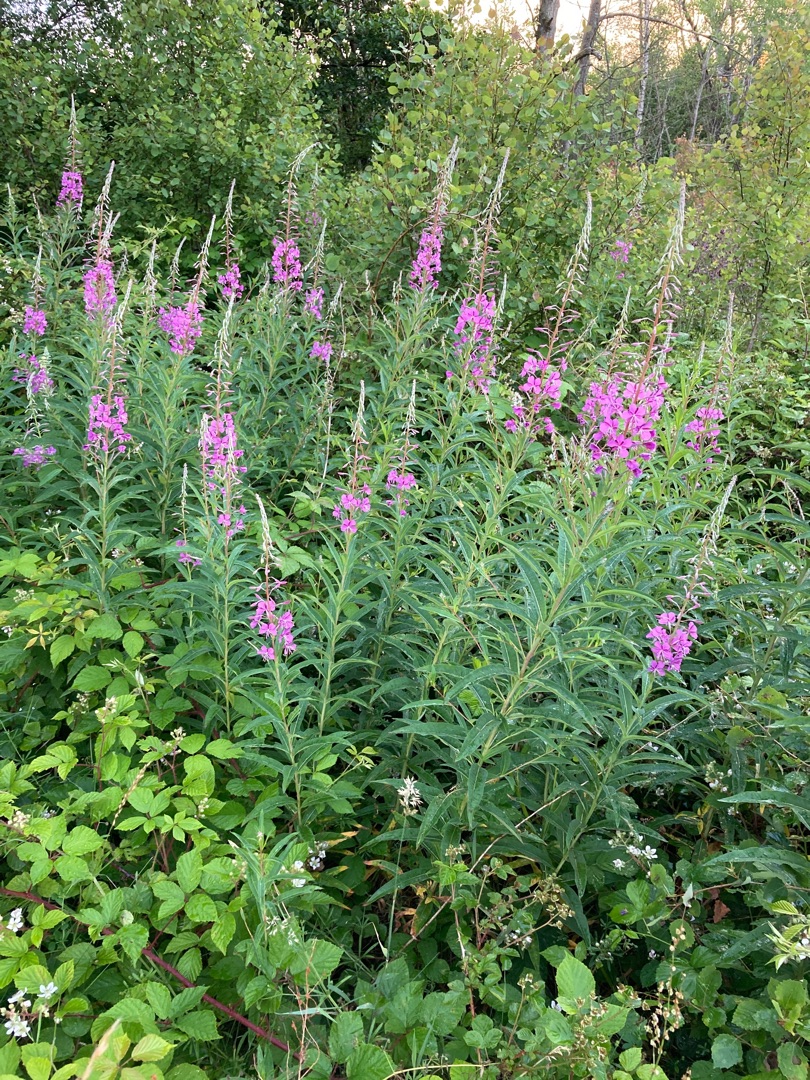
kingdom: Plantae
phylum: Tracheophyta
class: Magnoliopsida
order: Myrtales
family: Onagraceae
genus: Chamaenerion
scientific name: Chamaenerion angustifolium
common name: Gederams
